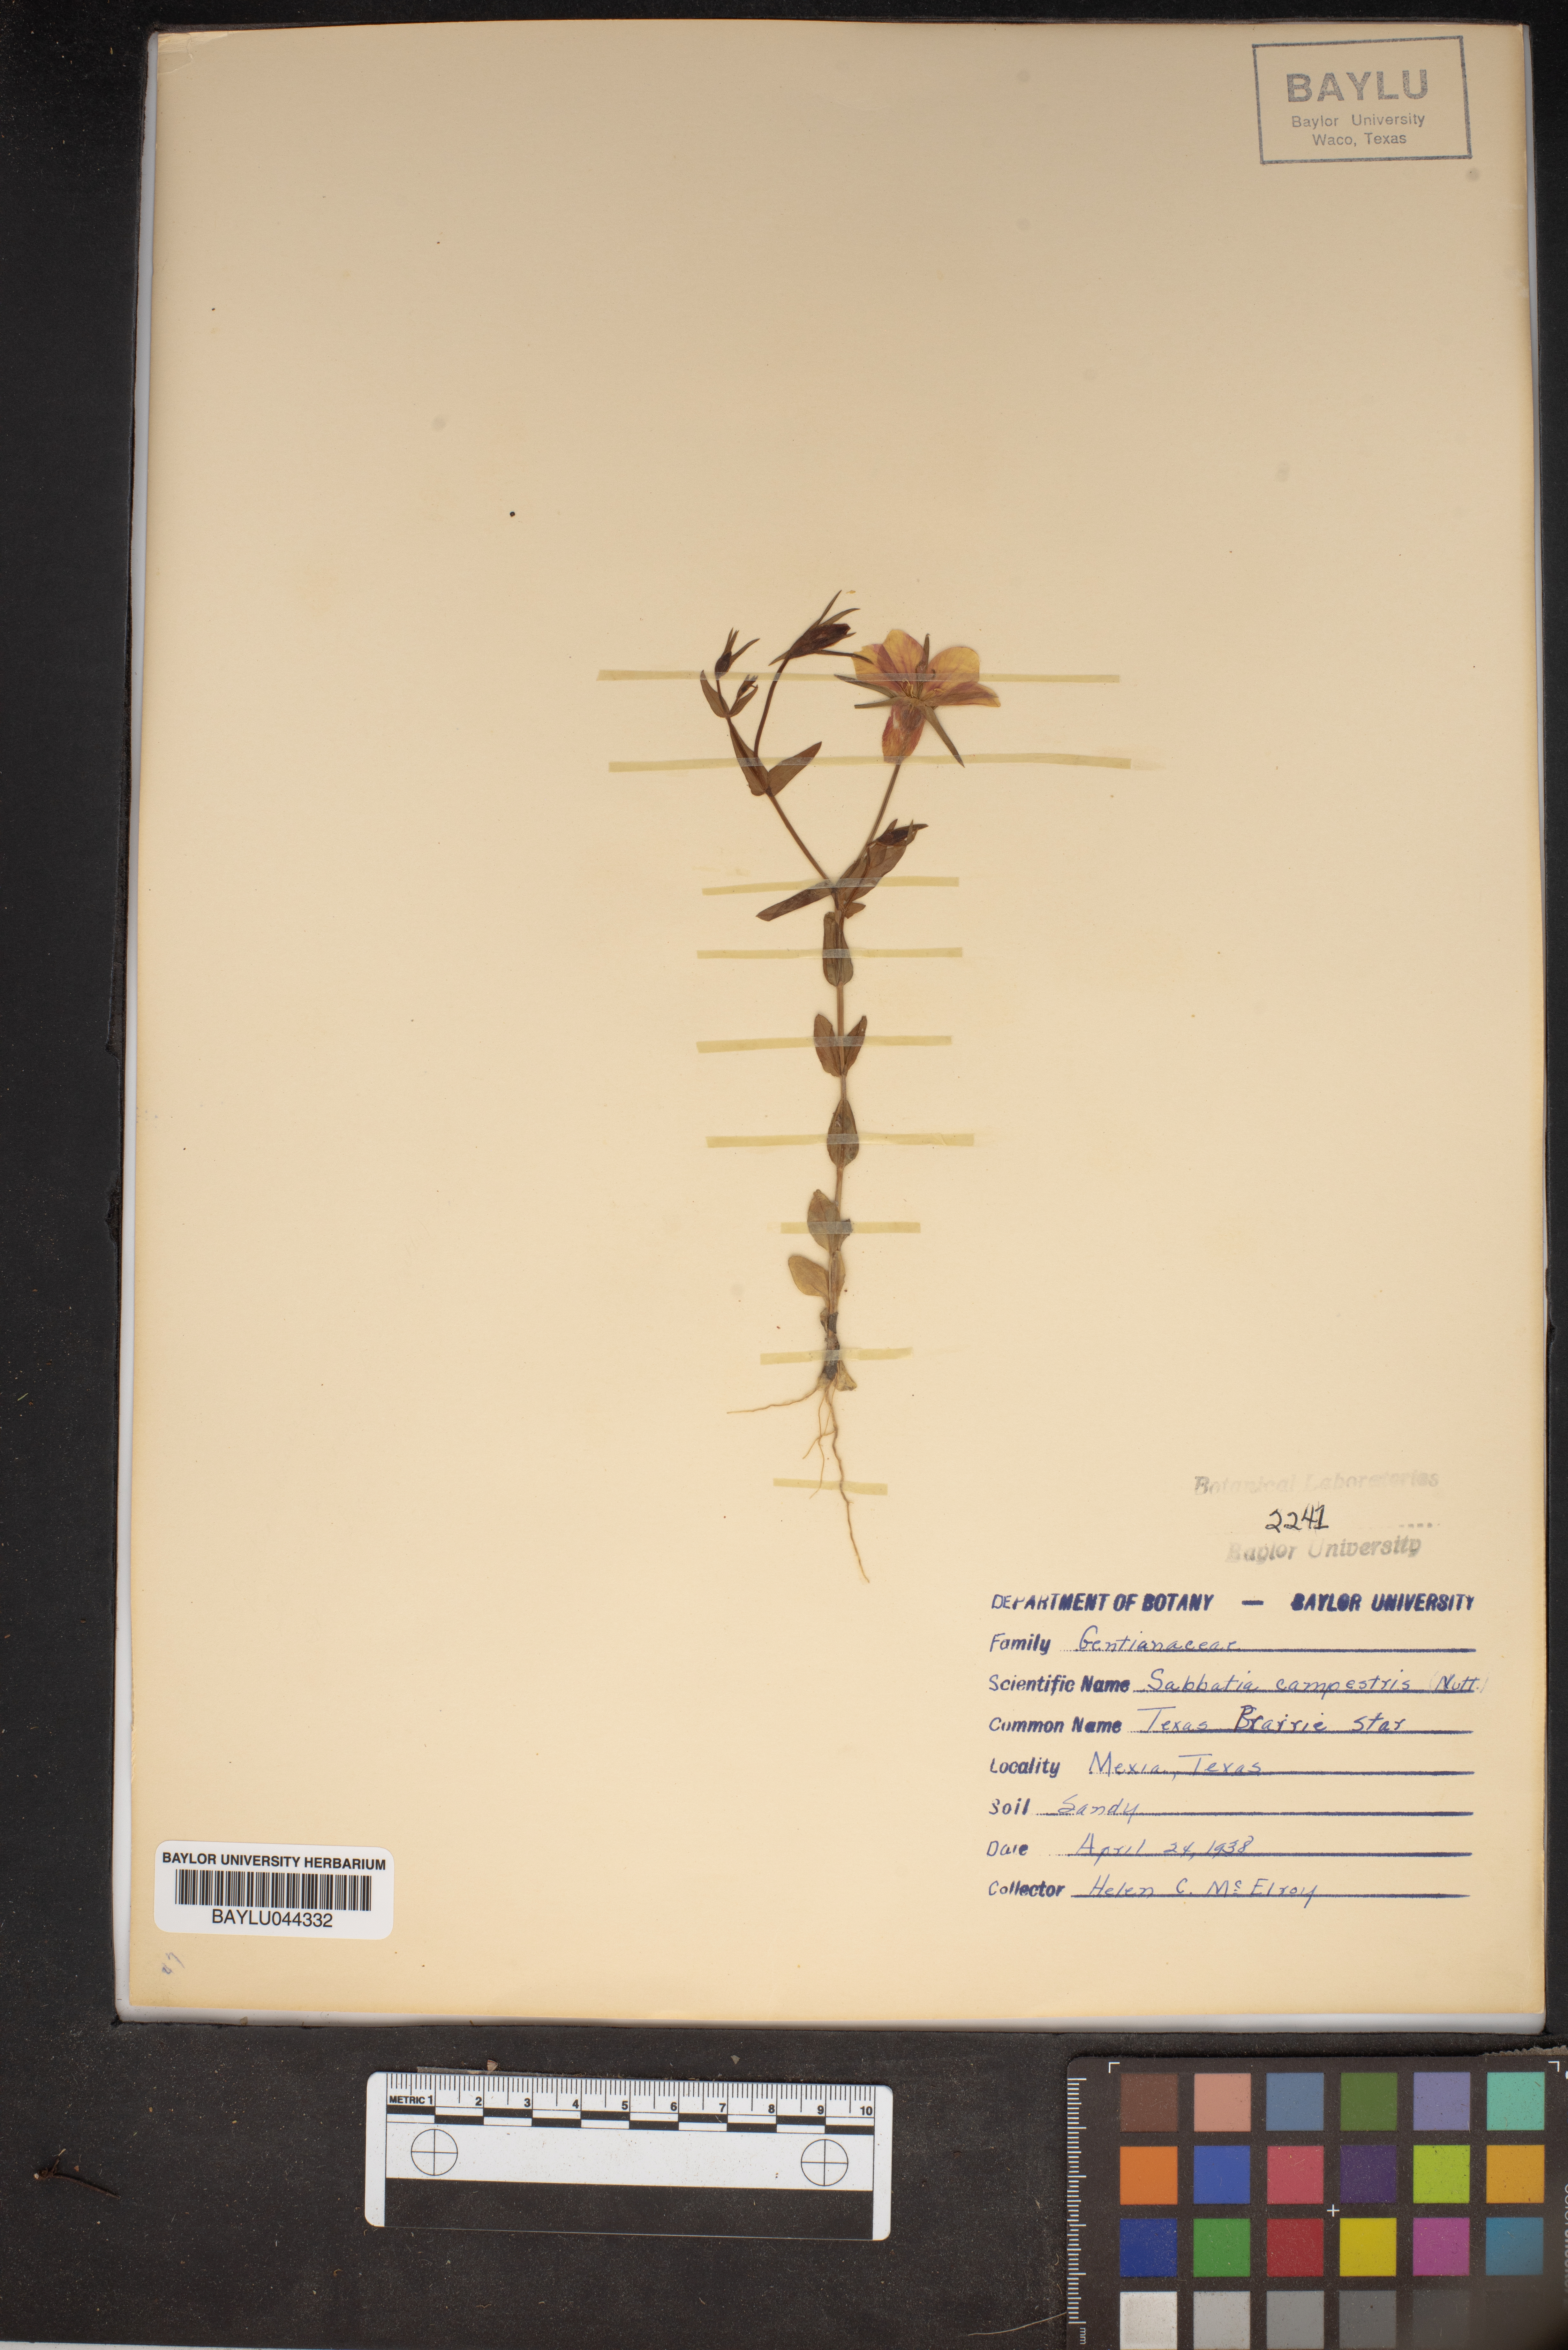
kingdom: Plantae
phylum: Tracheophyta
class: Magnoliopsida
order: Gentianales
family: Gentianaceae
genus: Sabatia
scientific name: Sabatia campestris
